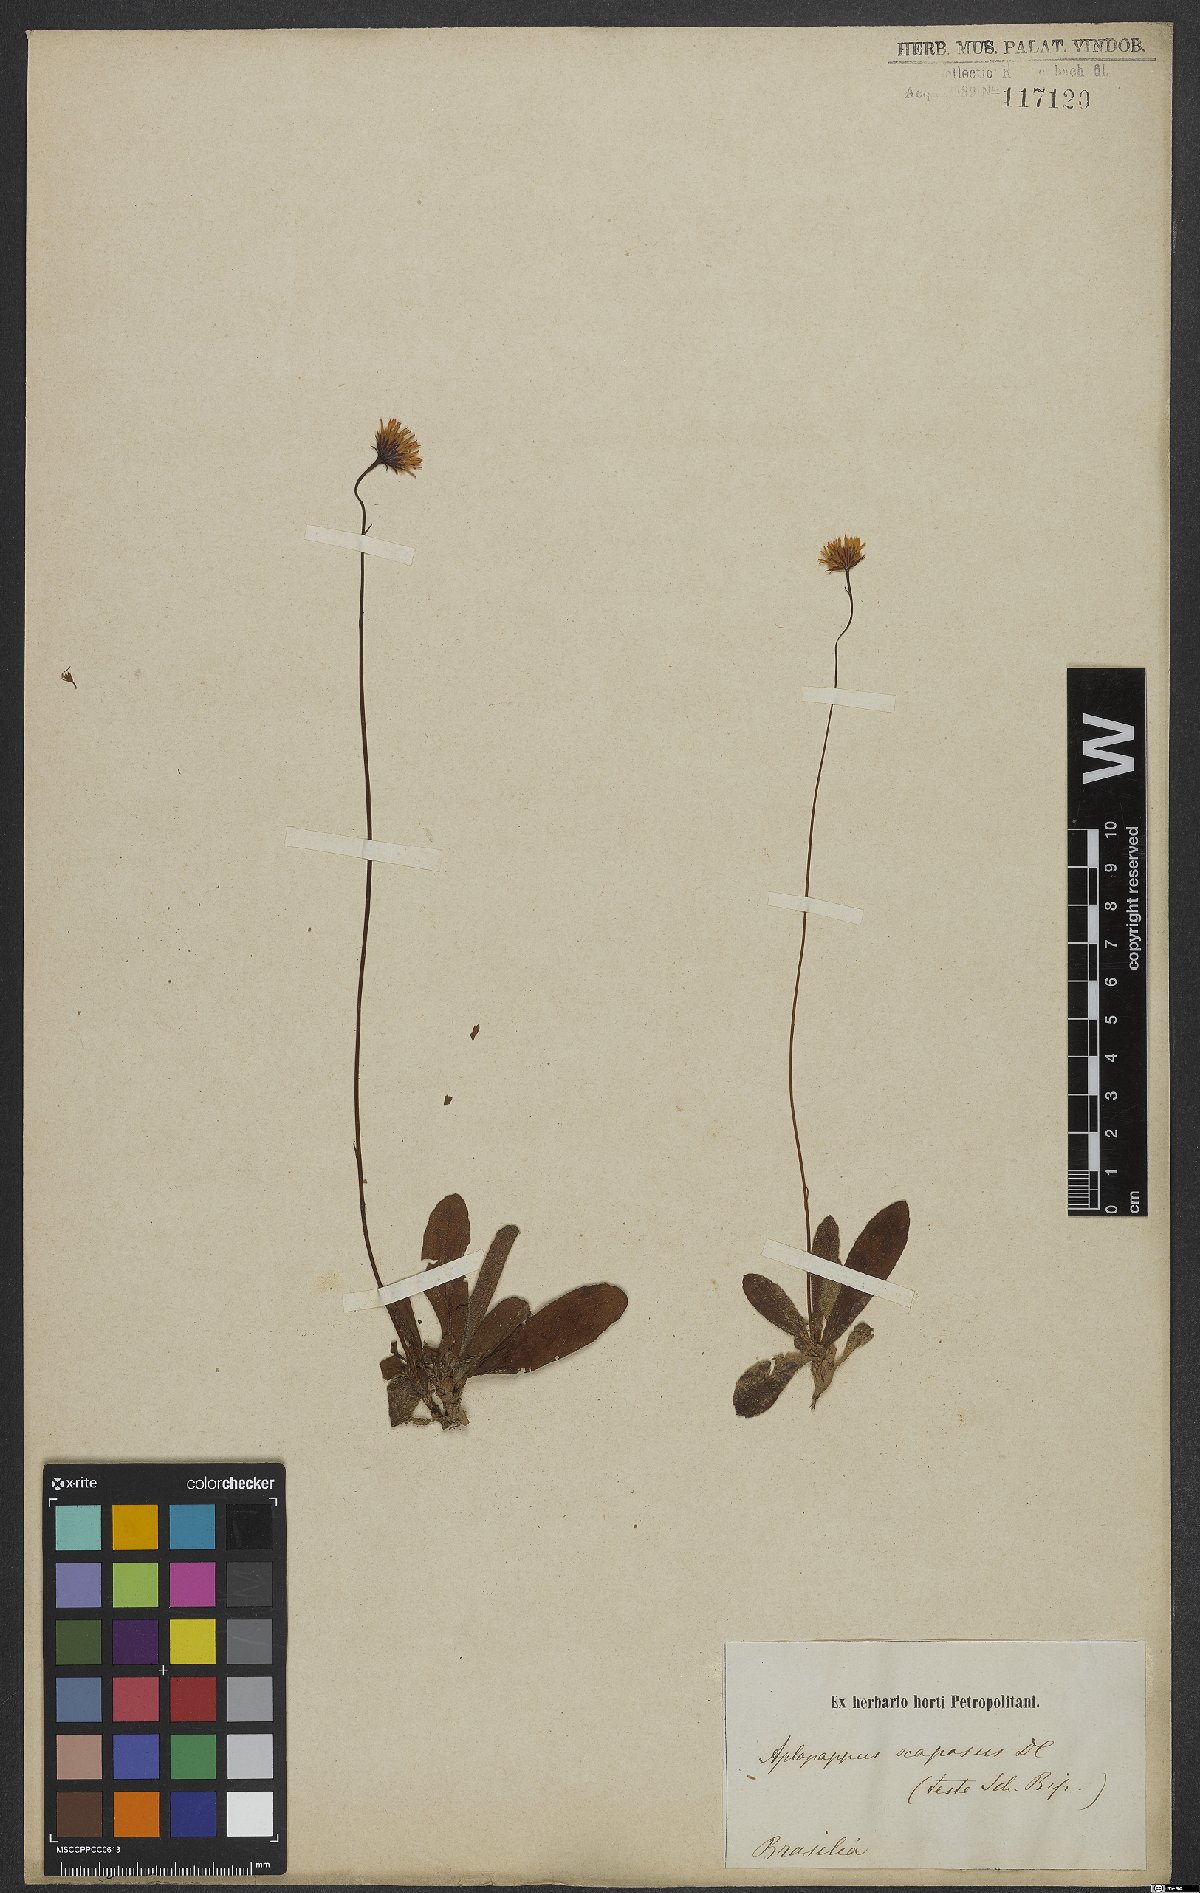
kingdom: Plantae
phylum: Tracheophyta
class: Magnoliopsida
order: Asterales
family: Asteraceae
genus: Inulopsis
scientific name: Inulopsis scaposa
